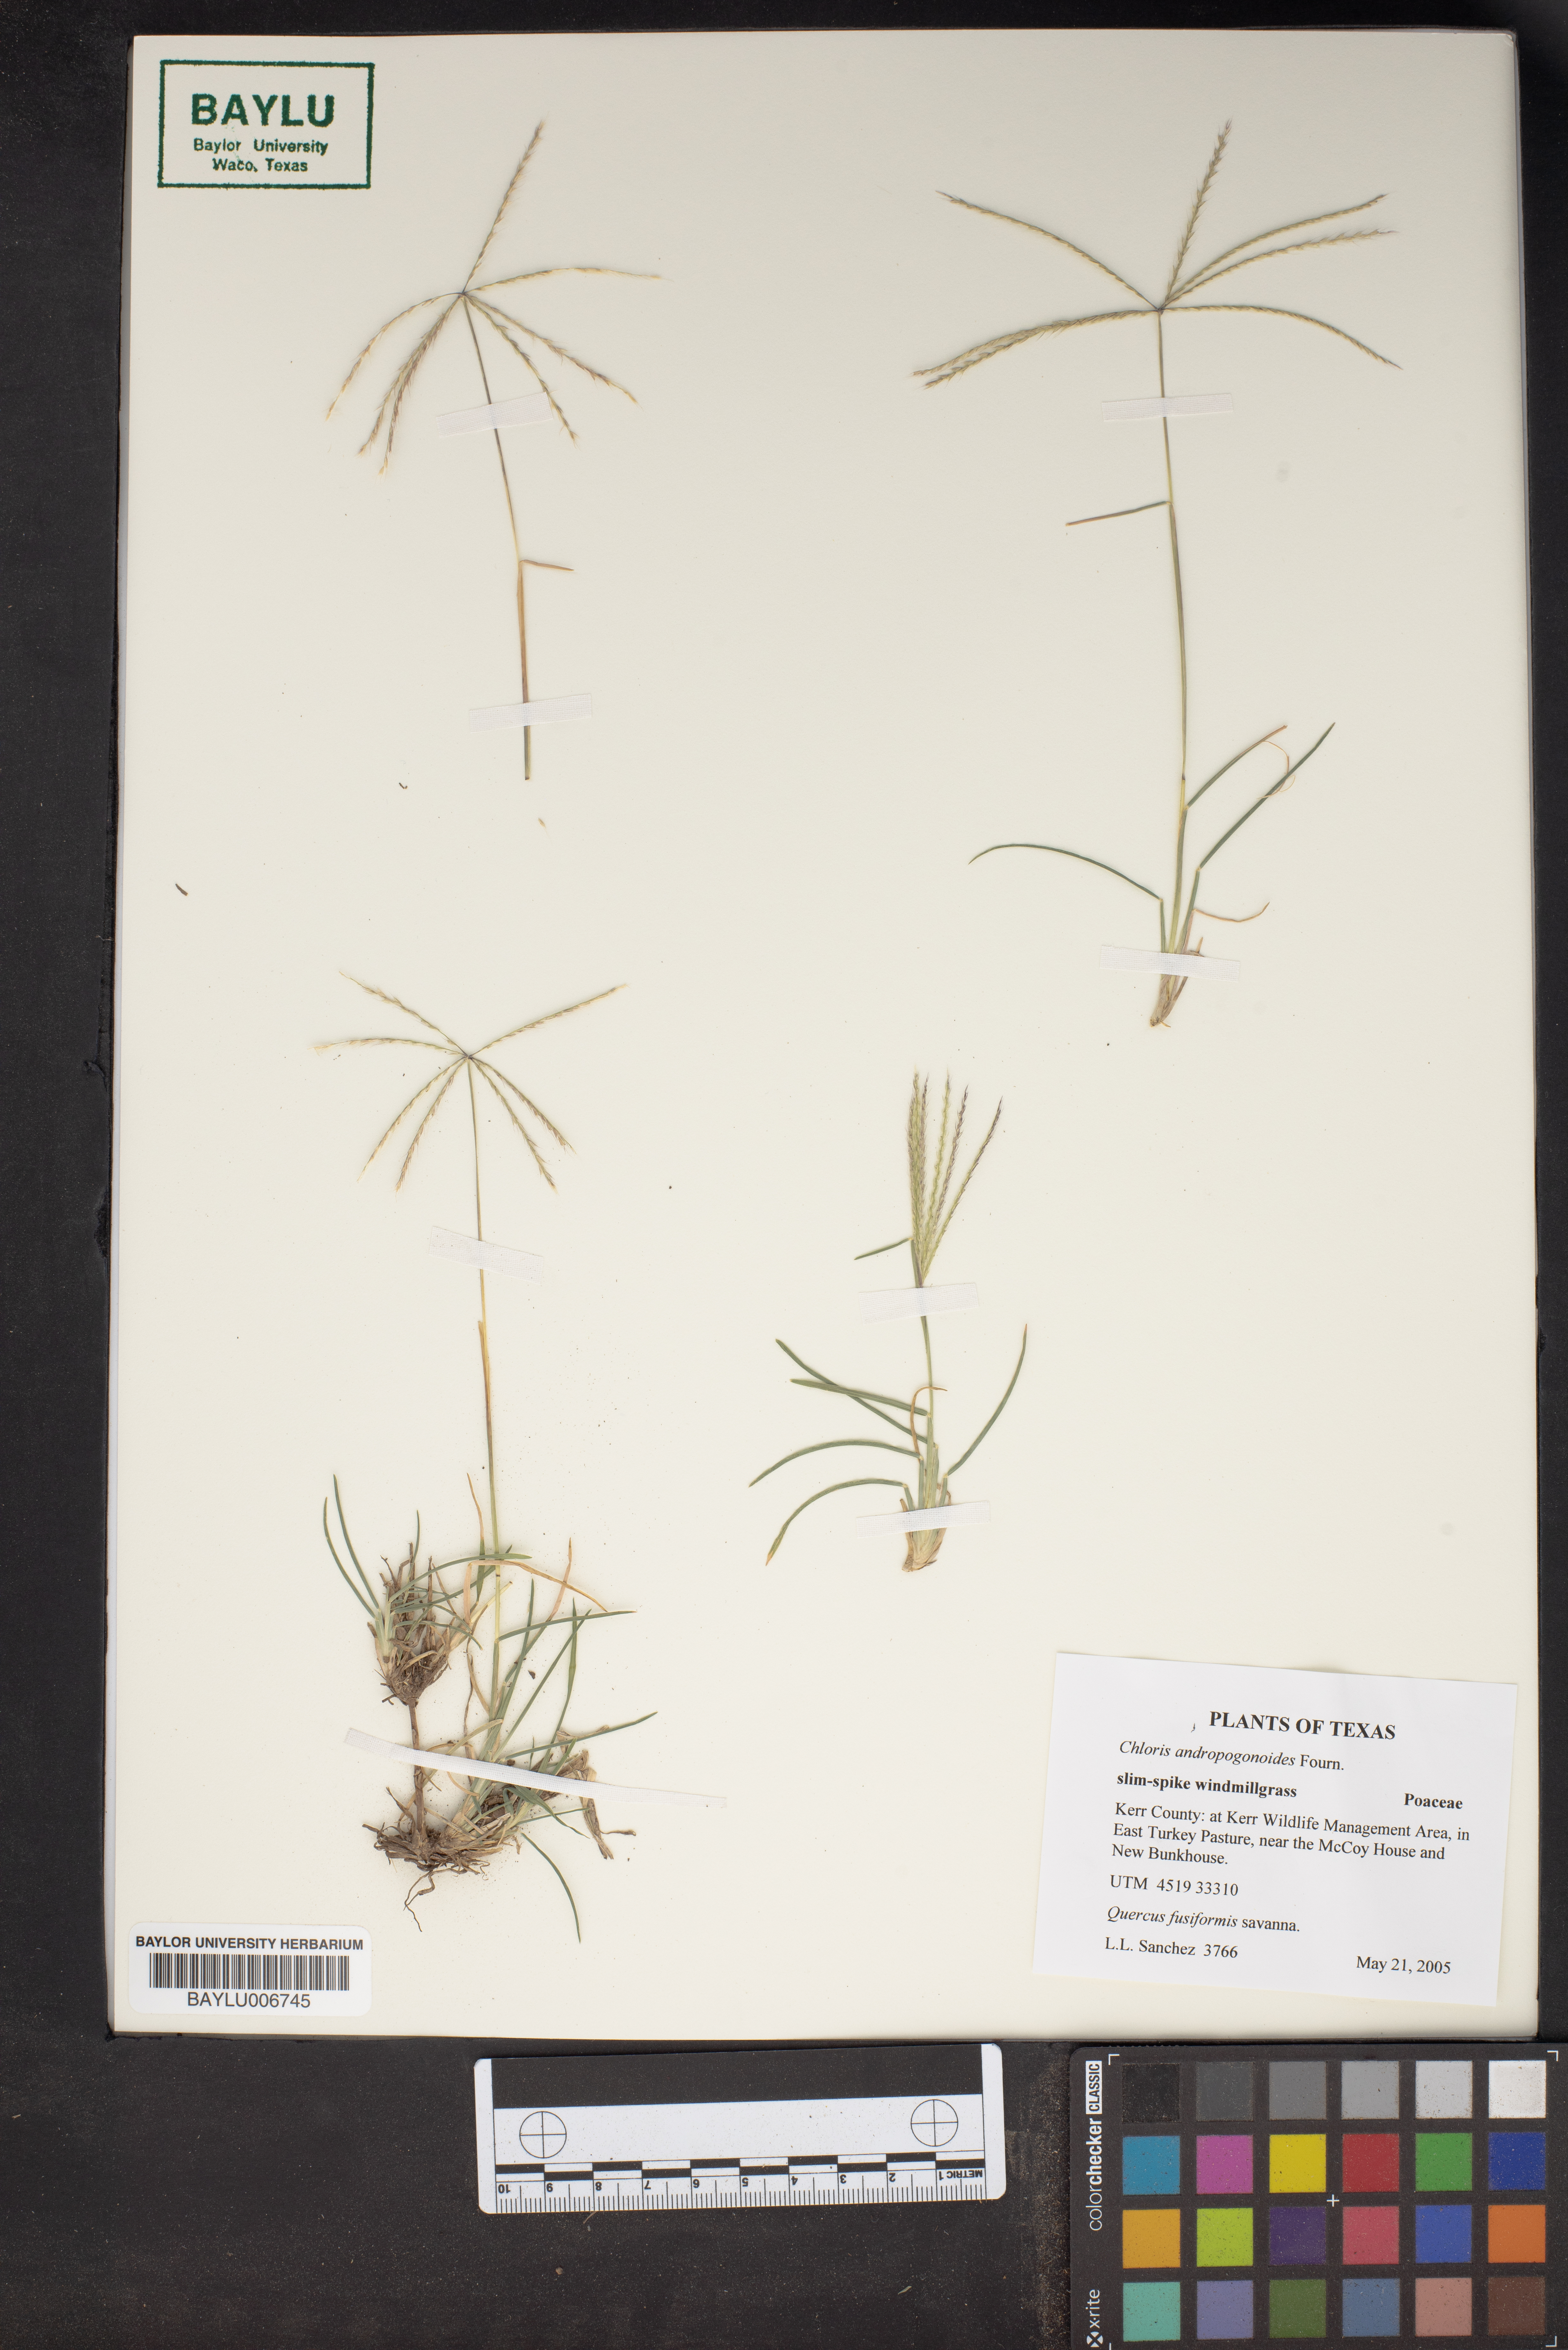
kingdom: Plantae
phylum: Tracheophyta
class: Liliopsida
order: Poales
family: Poaceae
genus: Chloris
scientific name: Chloris andropogonoides
